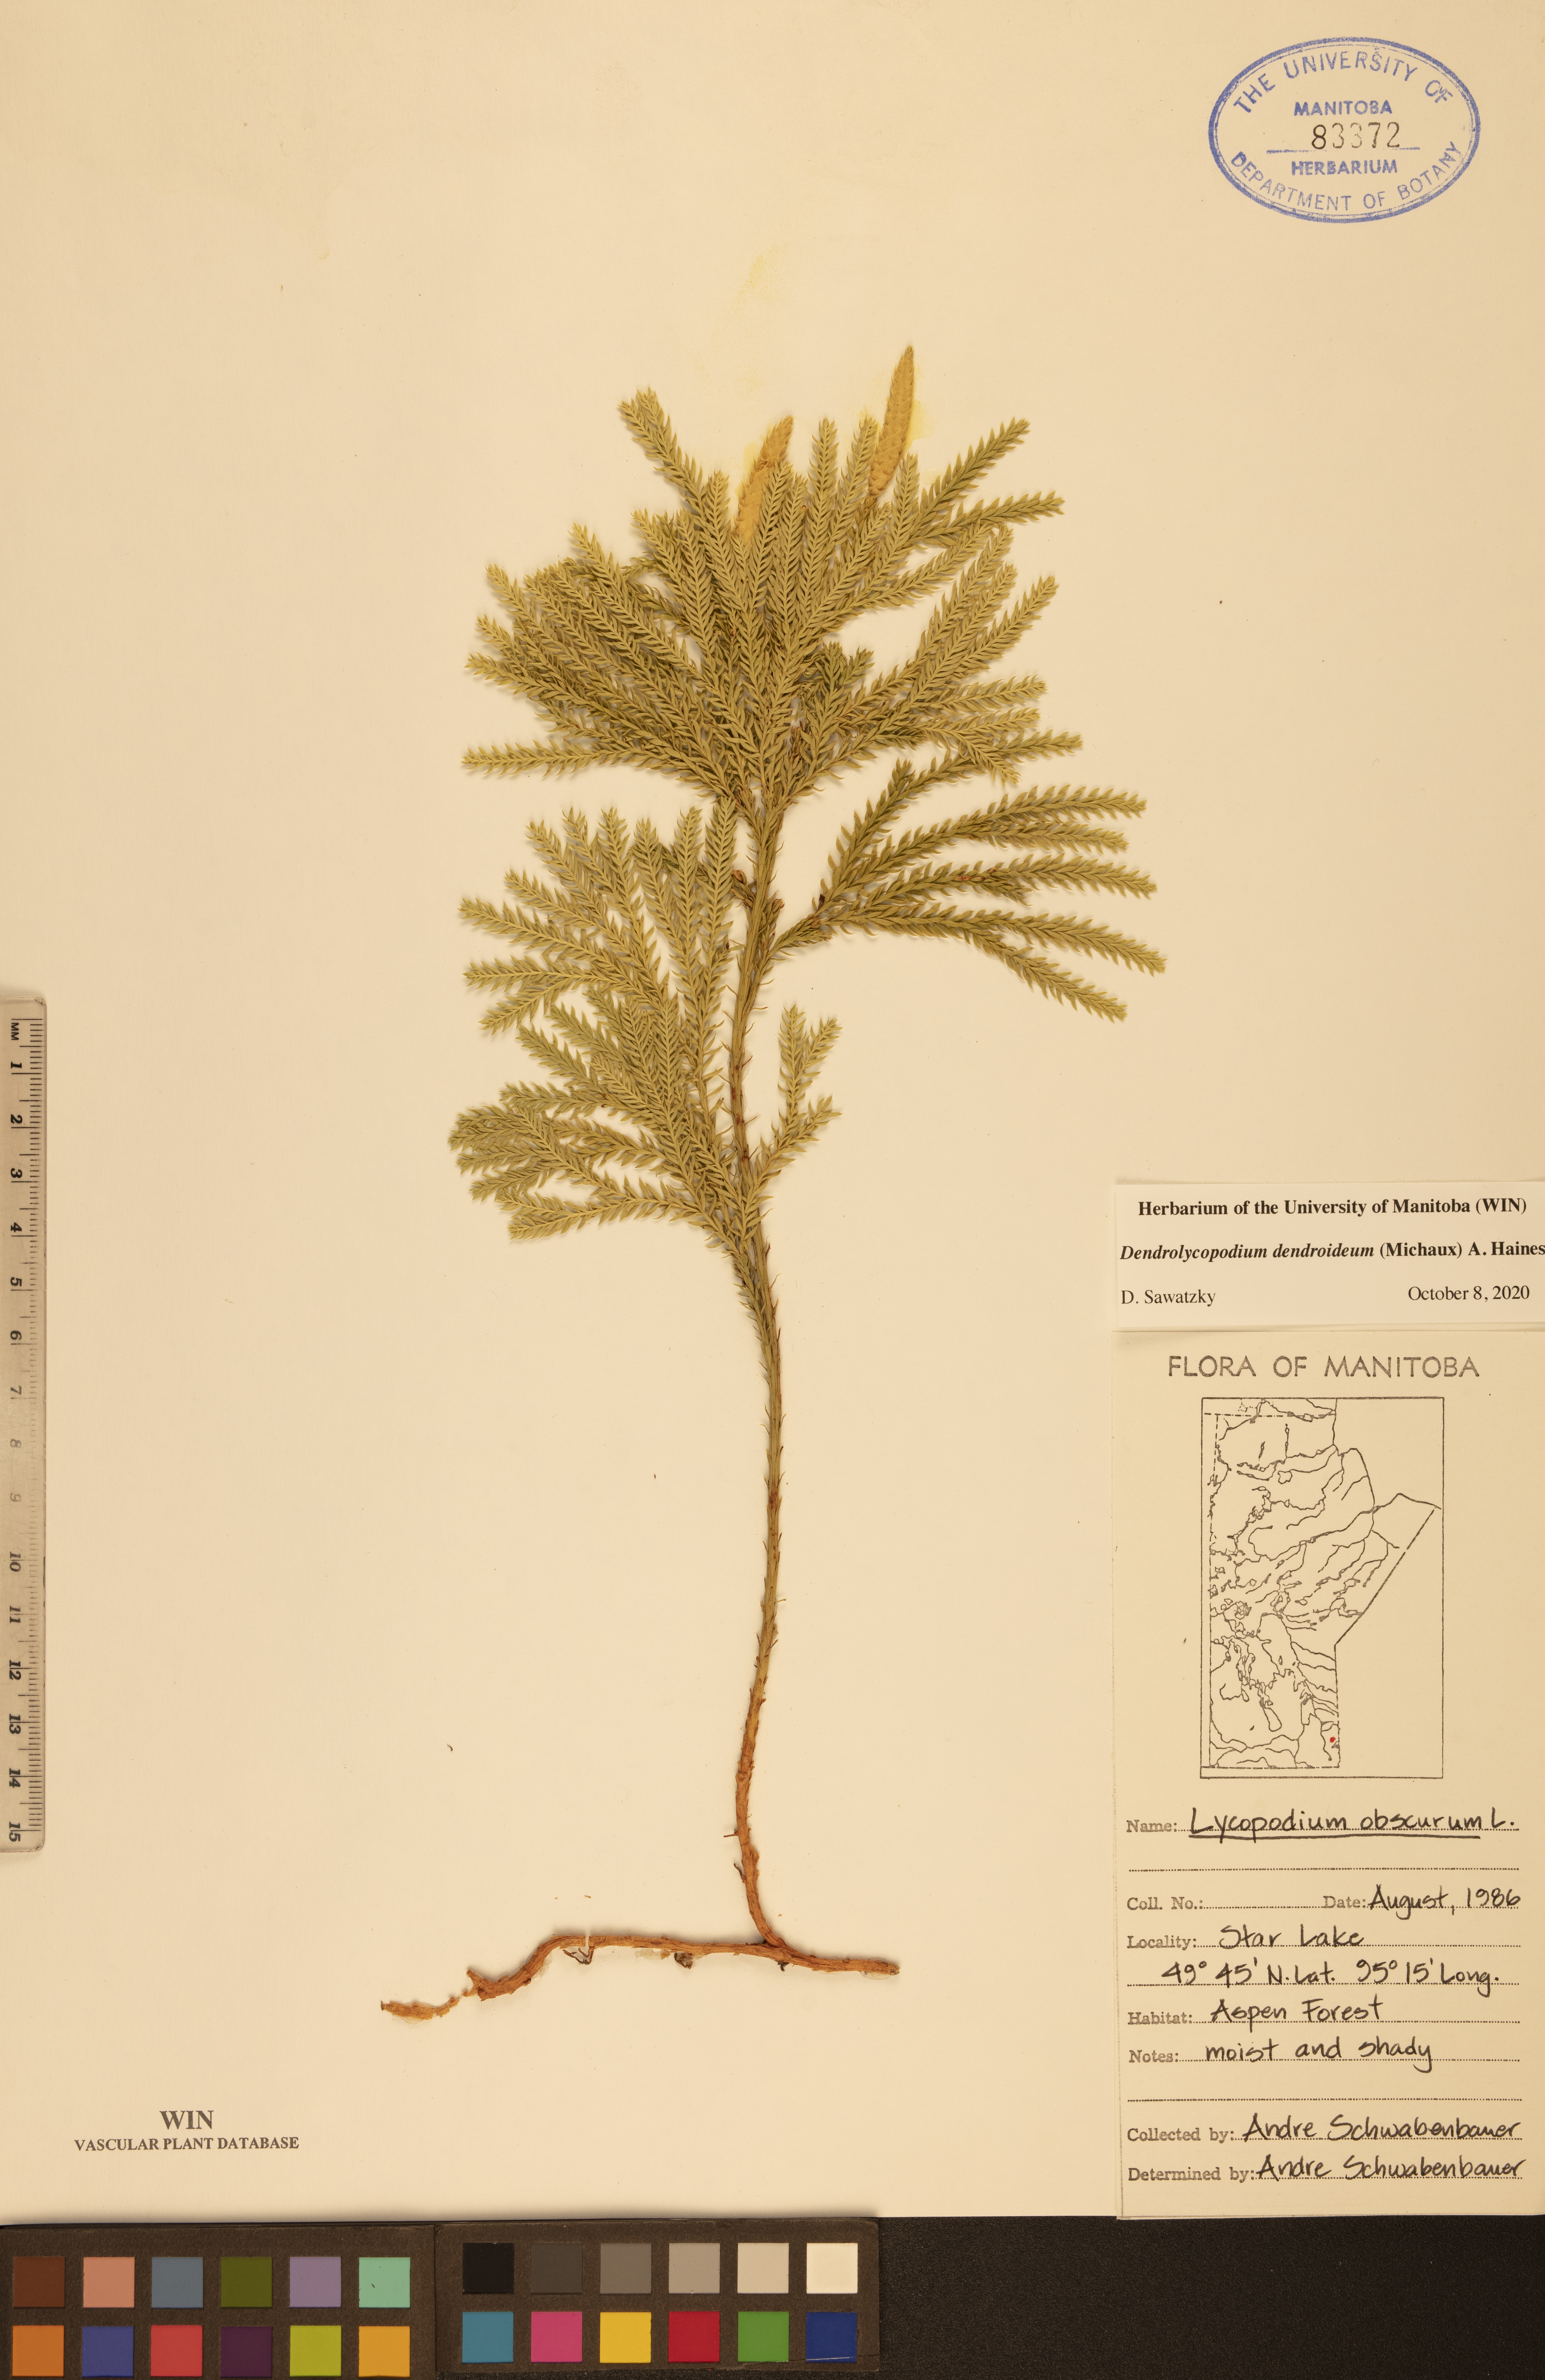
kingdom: Plantae
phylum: Tracheophyta
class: Lycopodiopsida
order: Lycopodiales
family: Lycopodiaceae
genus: Dendrolycopodium
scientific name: Dendrolycopodium dendroideum
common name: Northern tree-clubmoss
